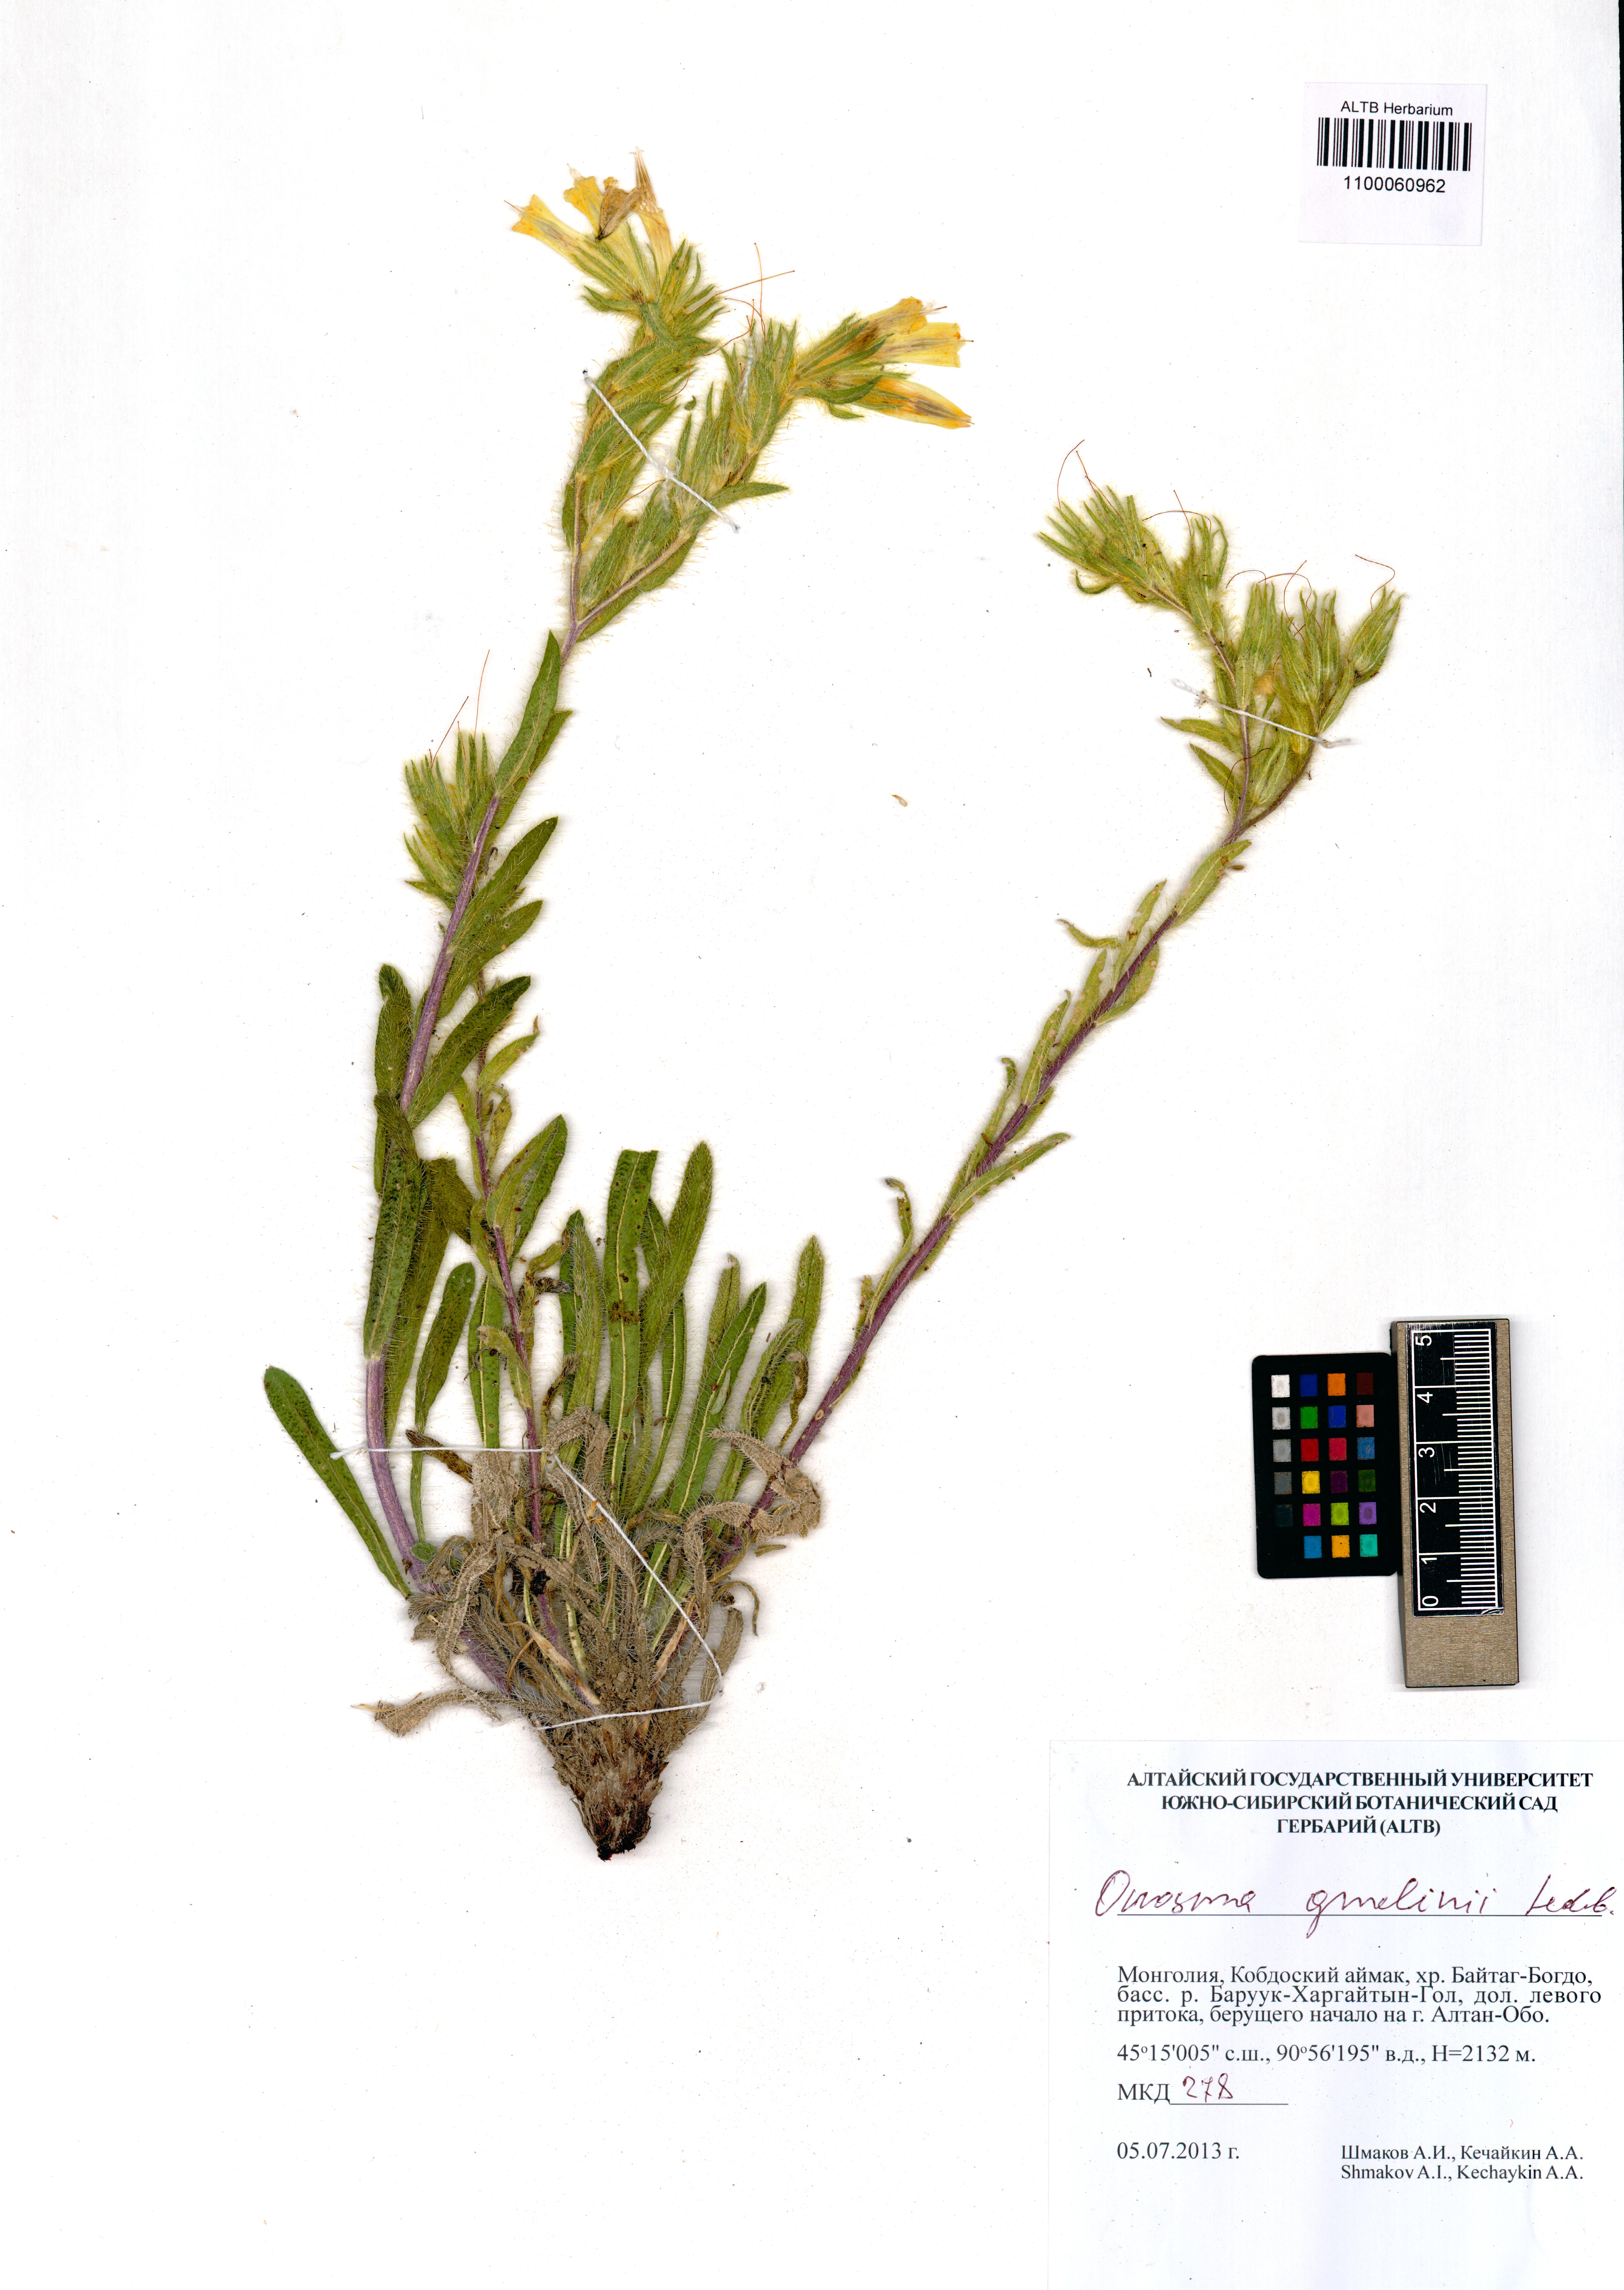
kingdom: Plantae
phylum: Tracheophyta
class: Magnoliopsida
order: Boraginales
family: Boraginaceae
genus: Onosma
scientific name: Onosma gmelinii
